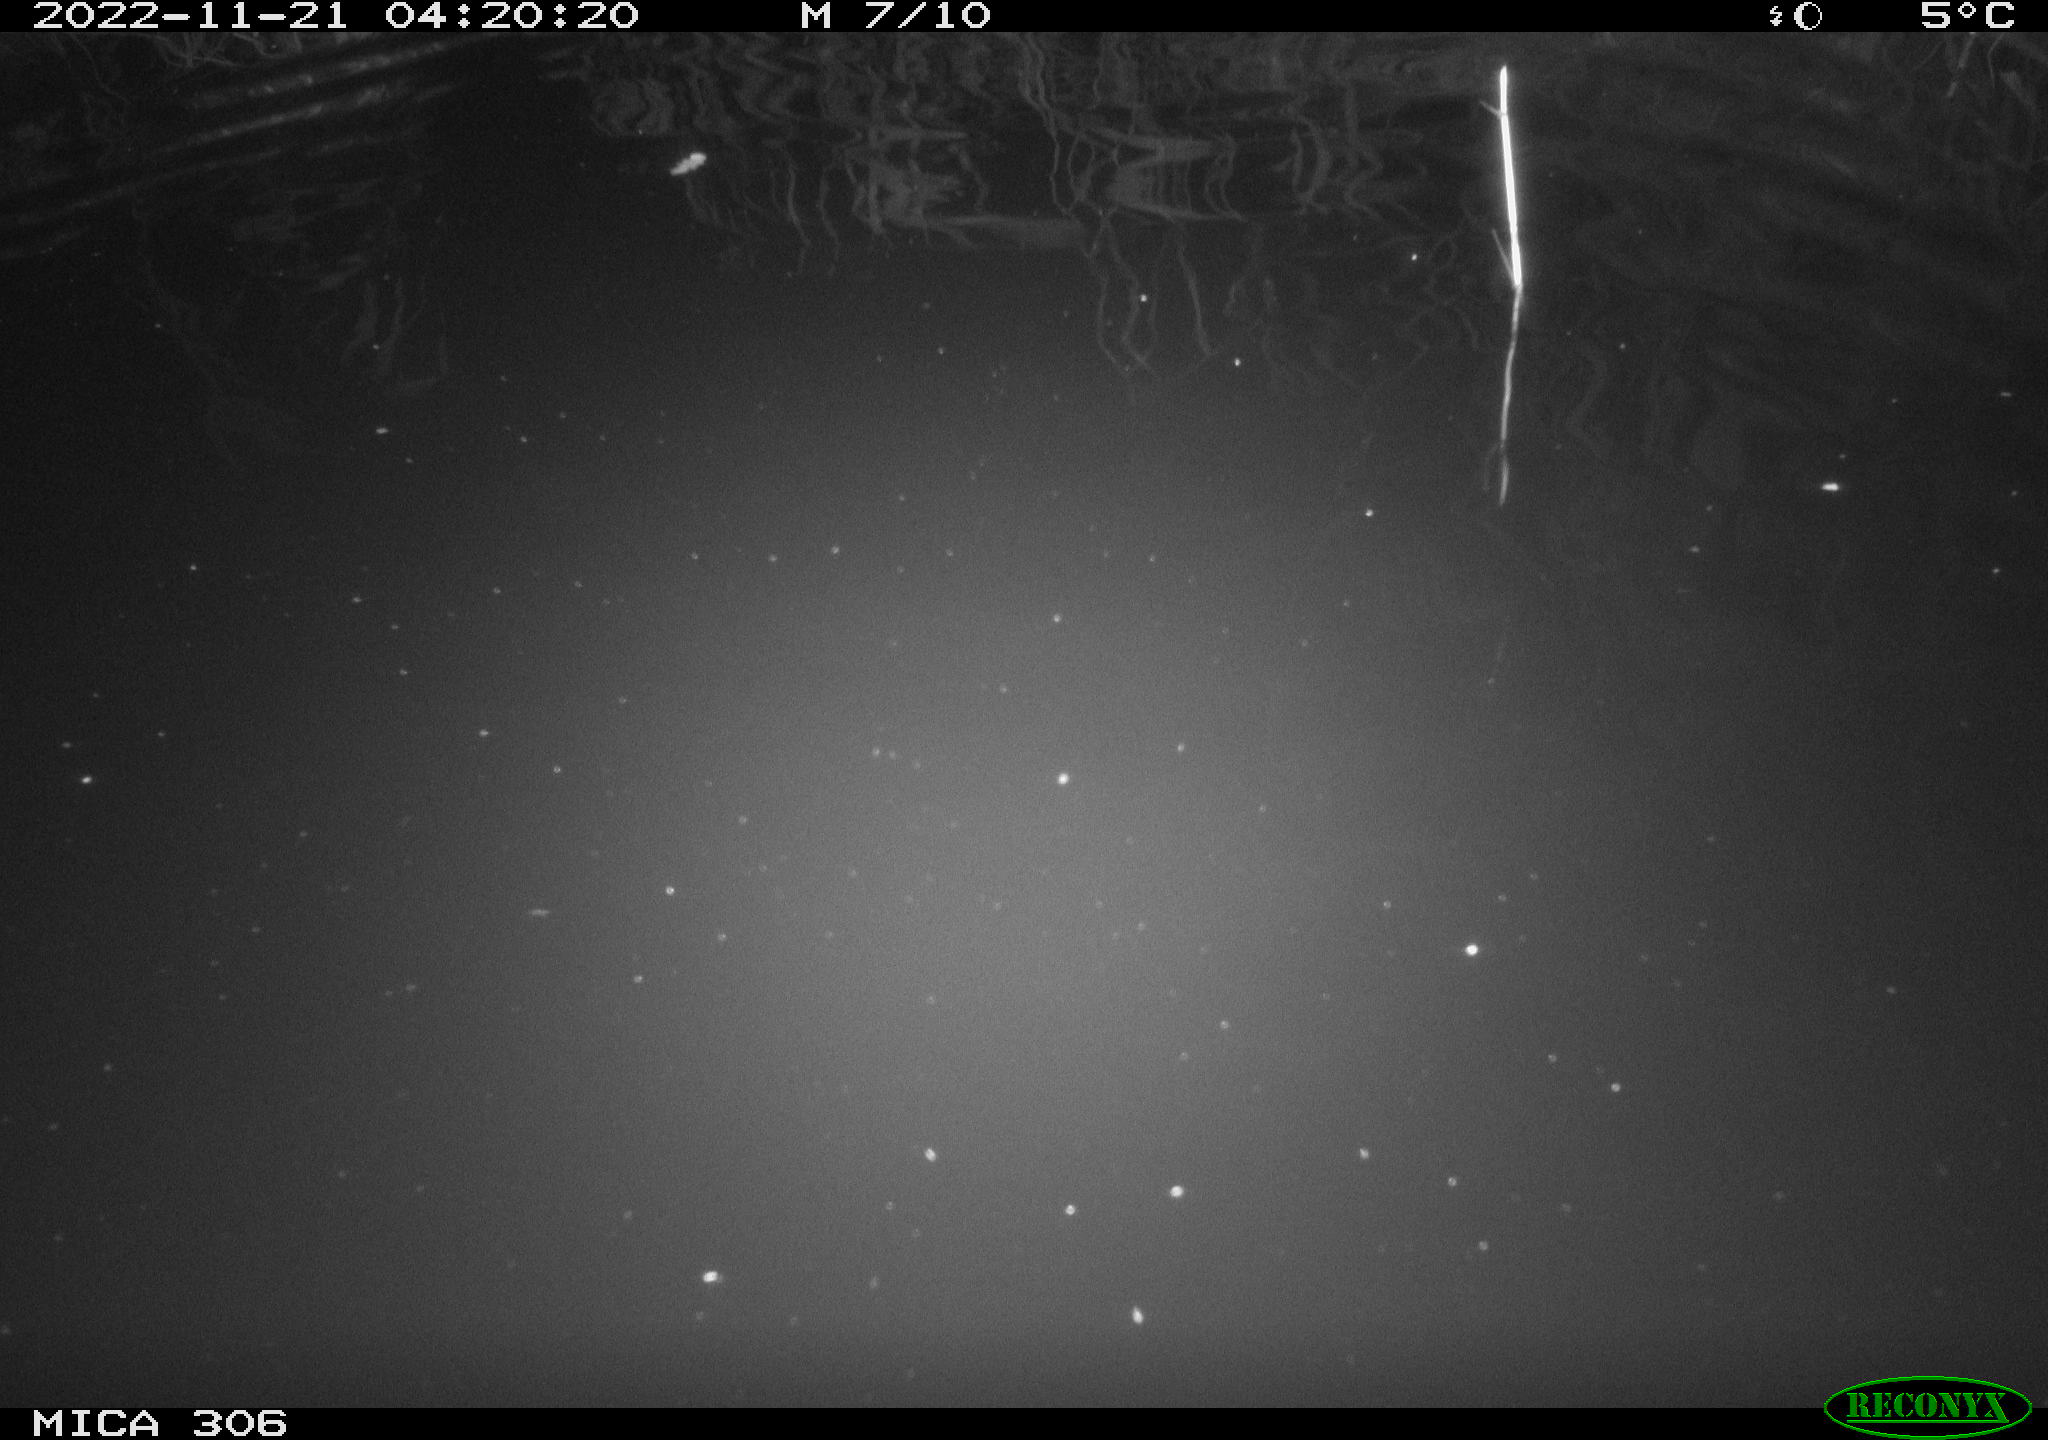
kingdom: Animalia
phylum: Chordata
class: Mammalia
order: Rodentia
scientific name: Rodentia
